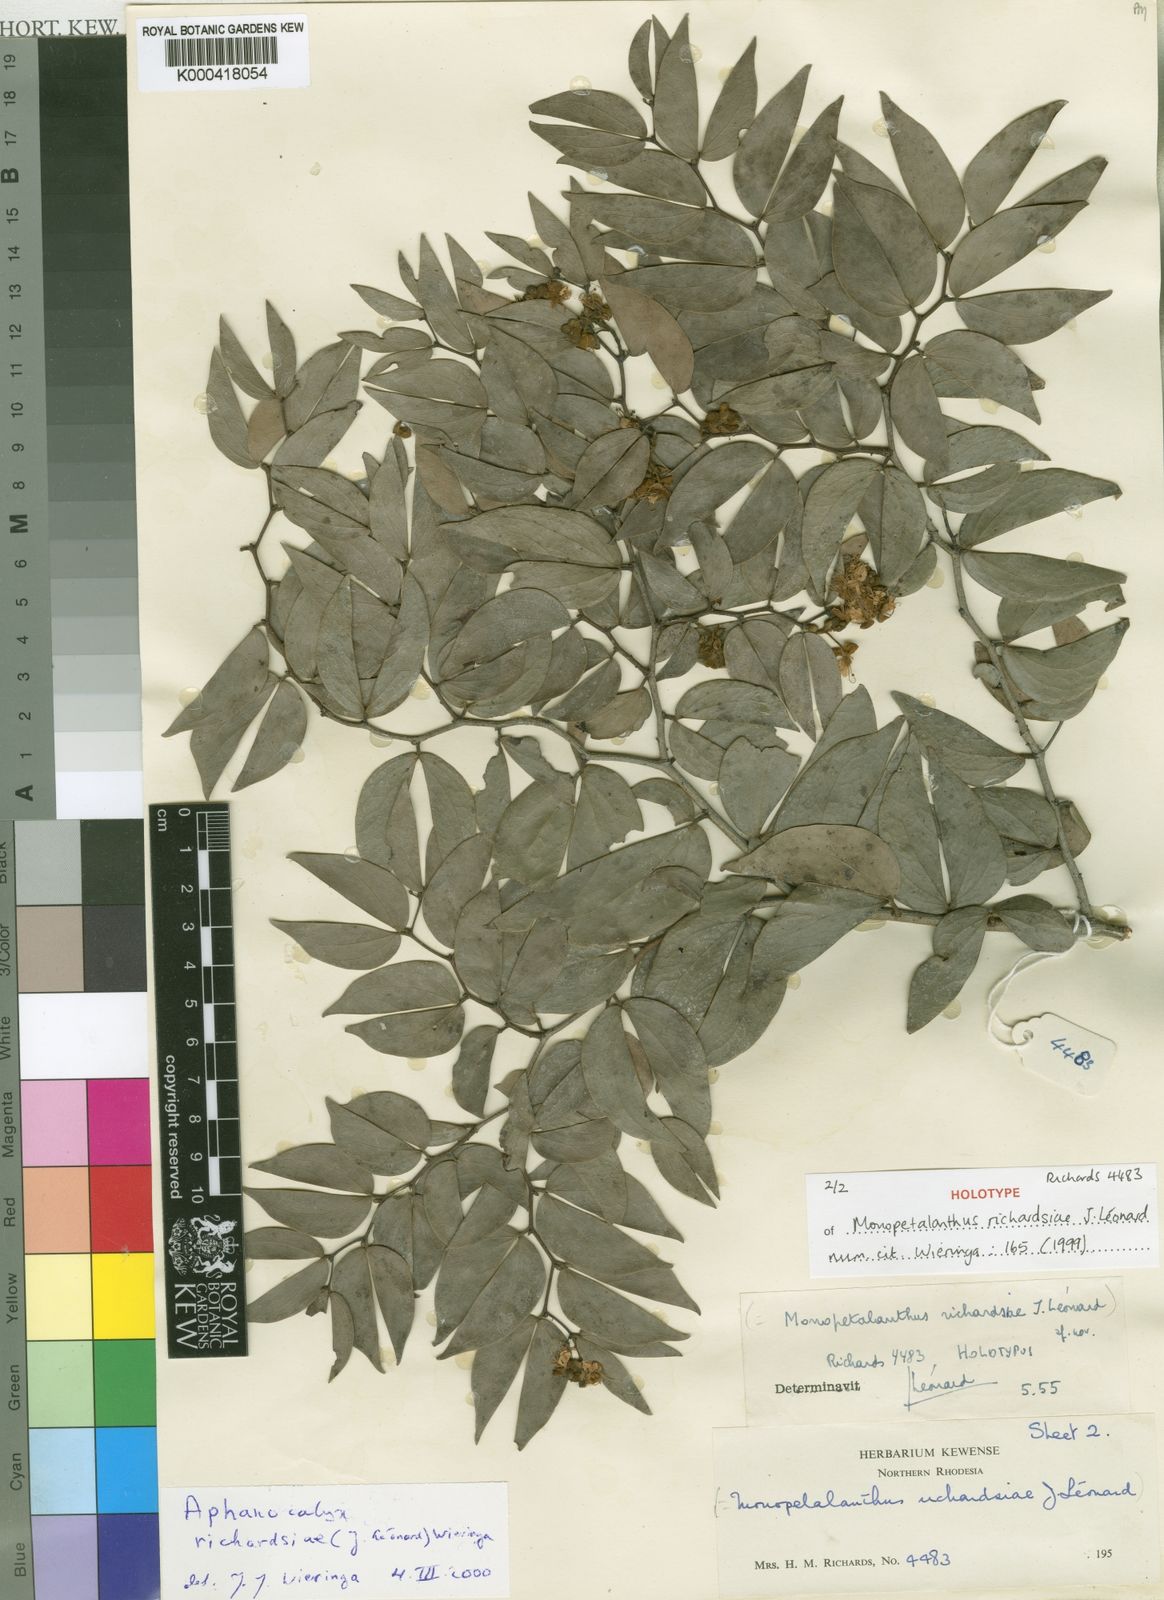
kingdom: Plantae
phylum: Tracheophyta
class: Magnoliopsida
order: Fabales
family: Fabaceae
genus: Aphanocalyx
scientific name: Aphanocalyx
